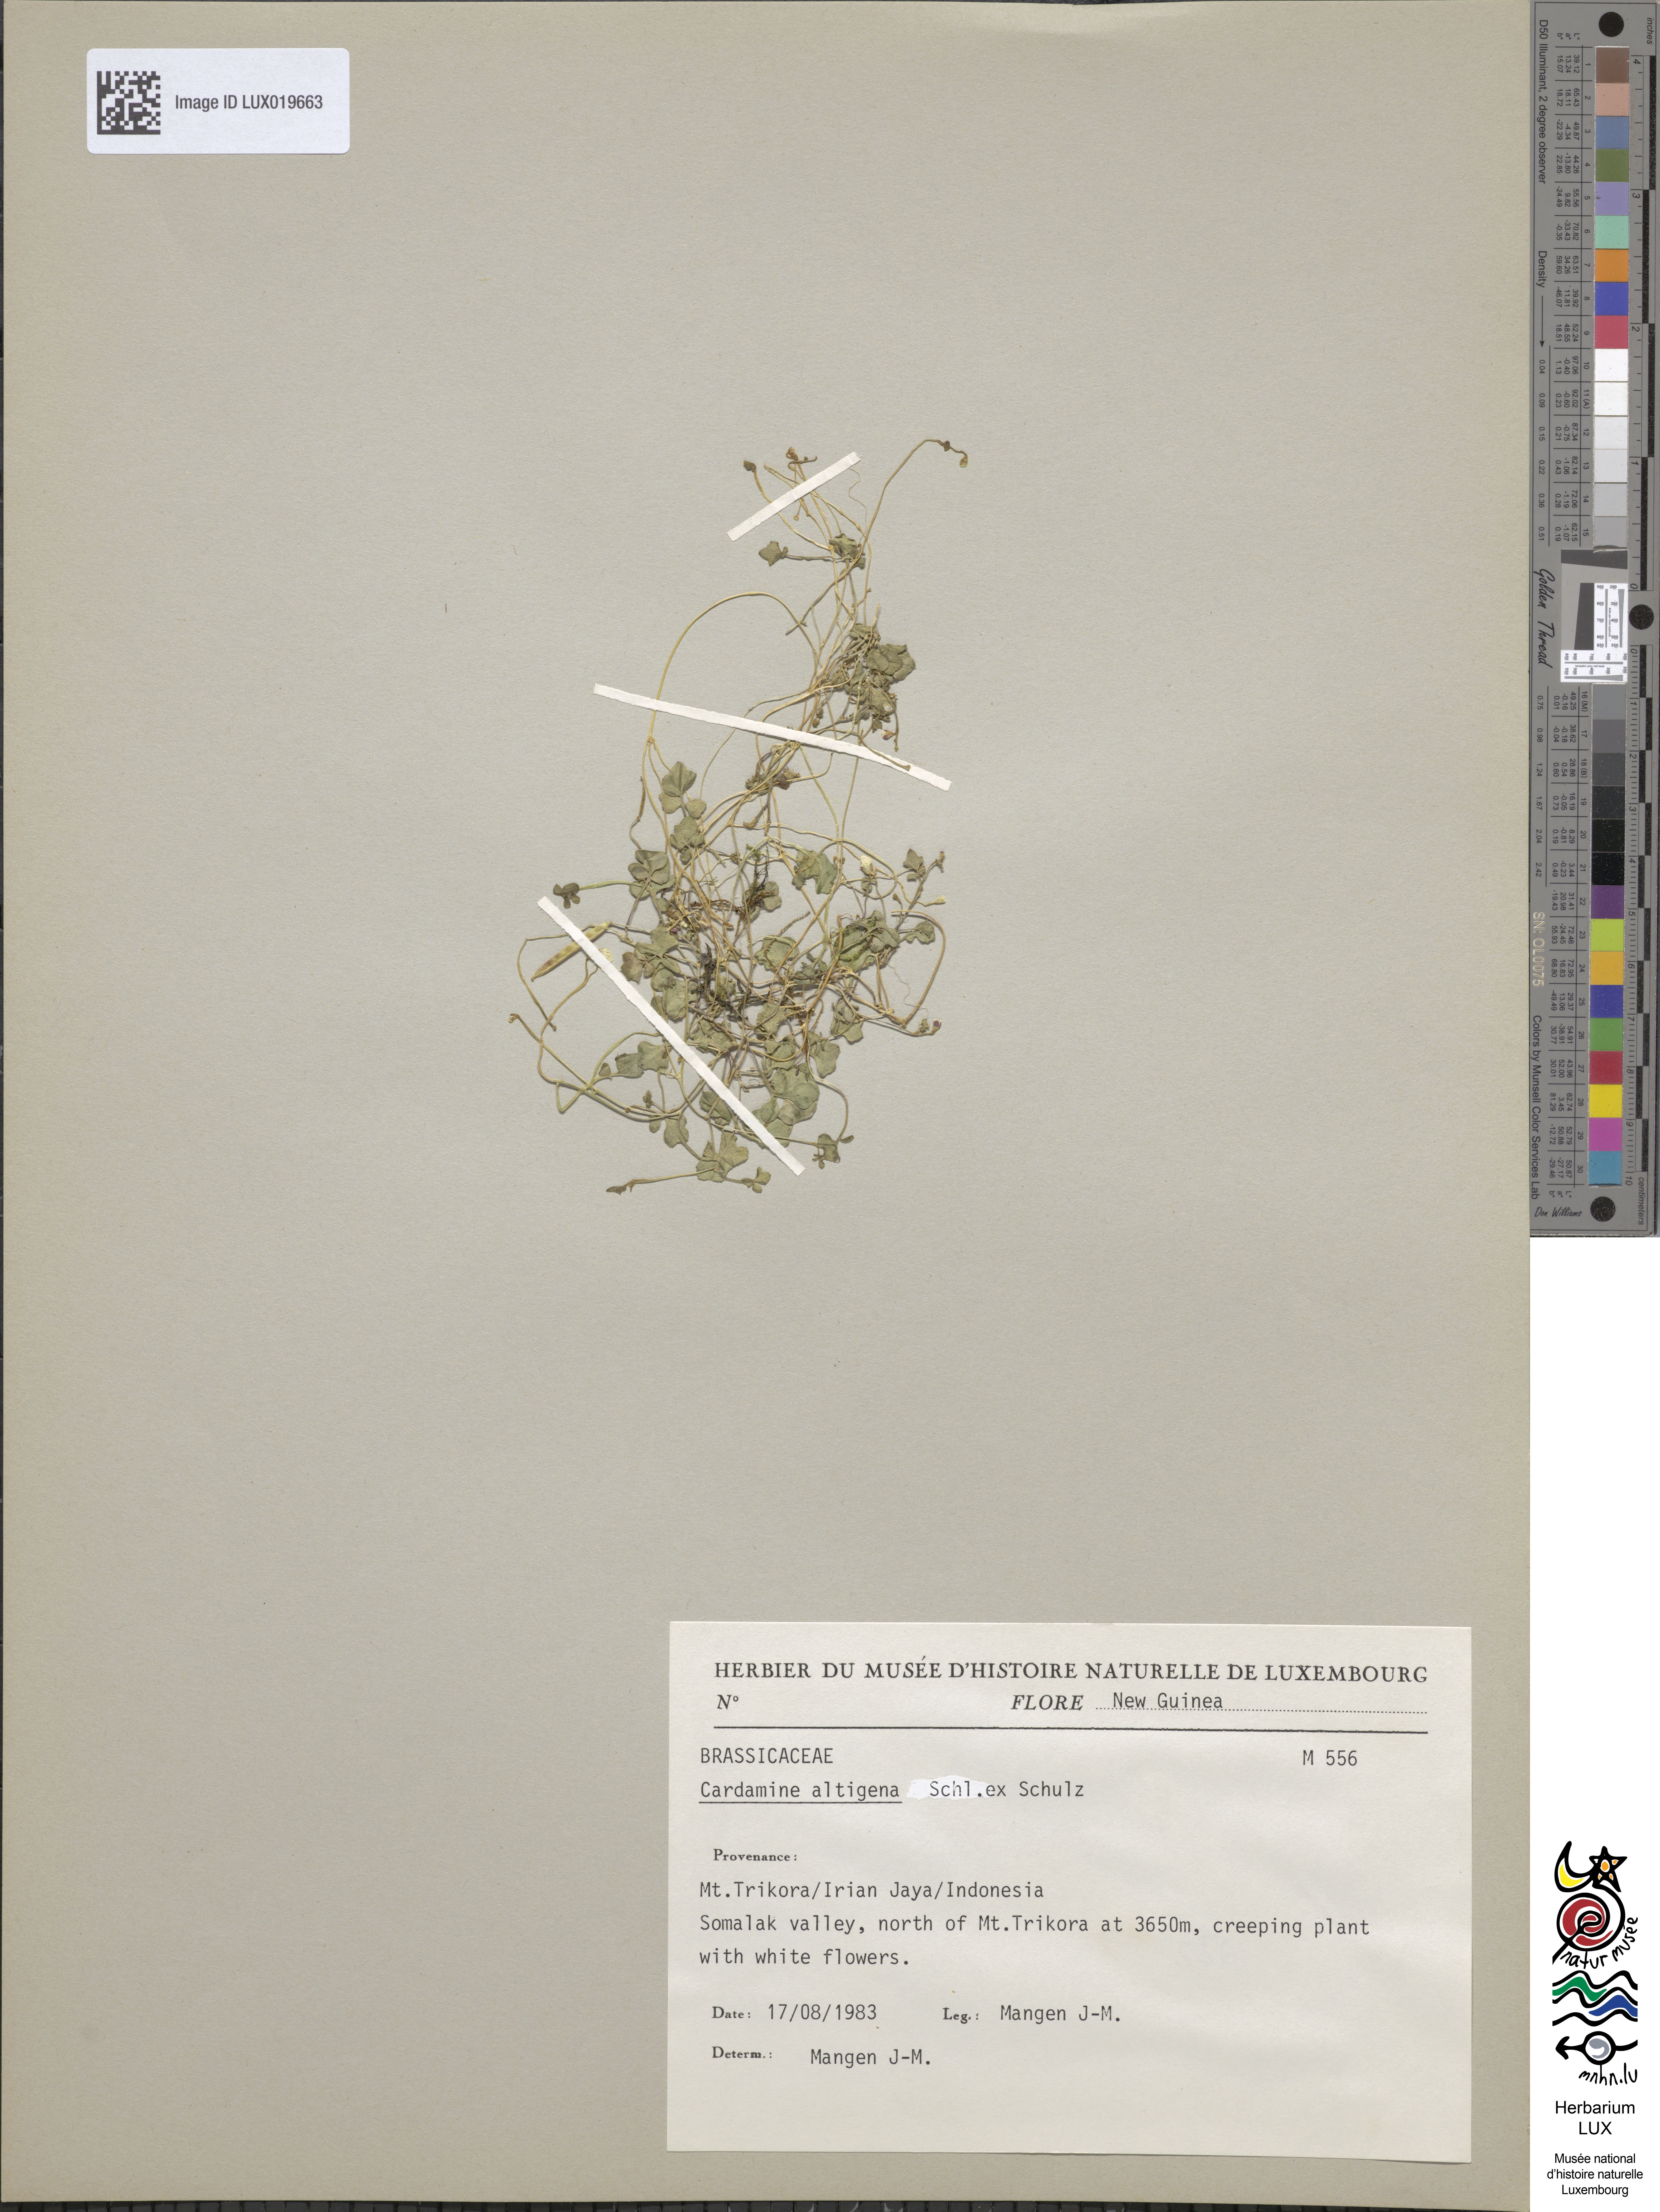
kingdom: Plantae
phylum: Tracheophyta
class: Magnoliopsida
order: Brassicales
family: Brassicaceae
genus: Cardamine
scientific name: Cardamine altigena
